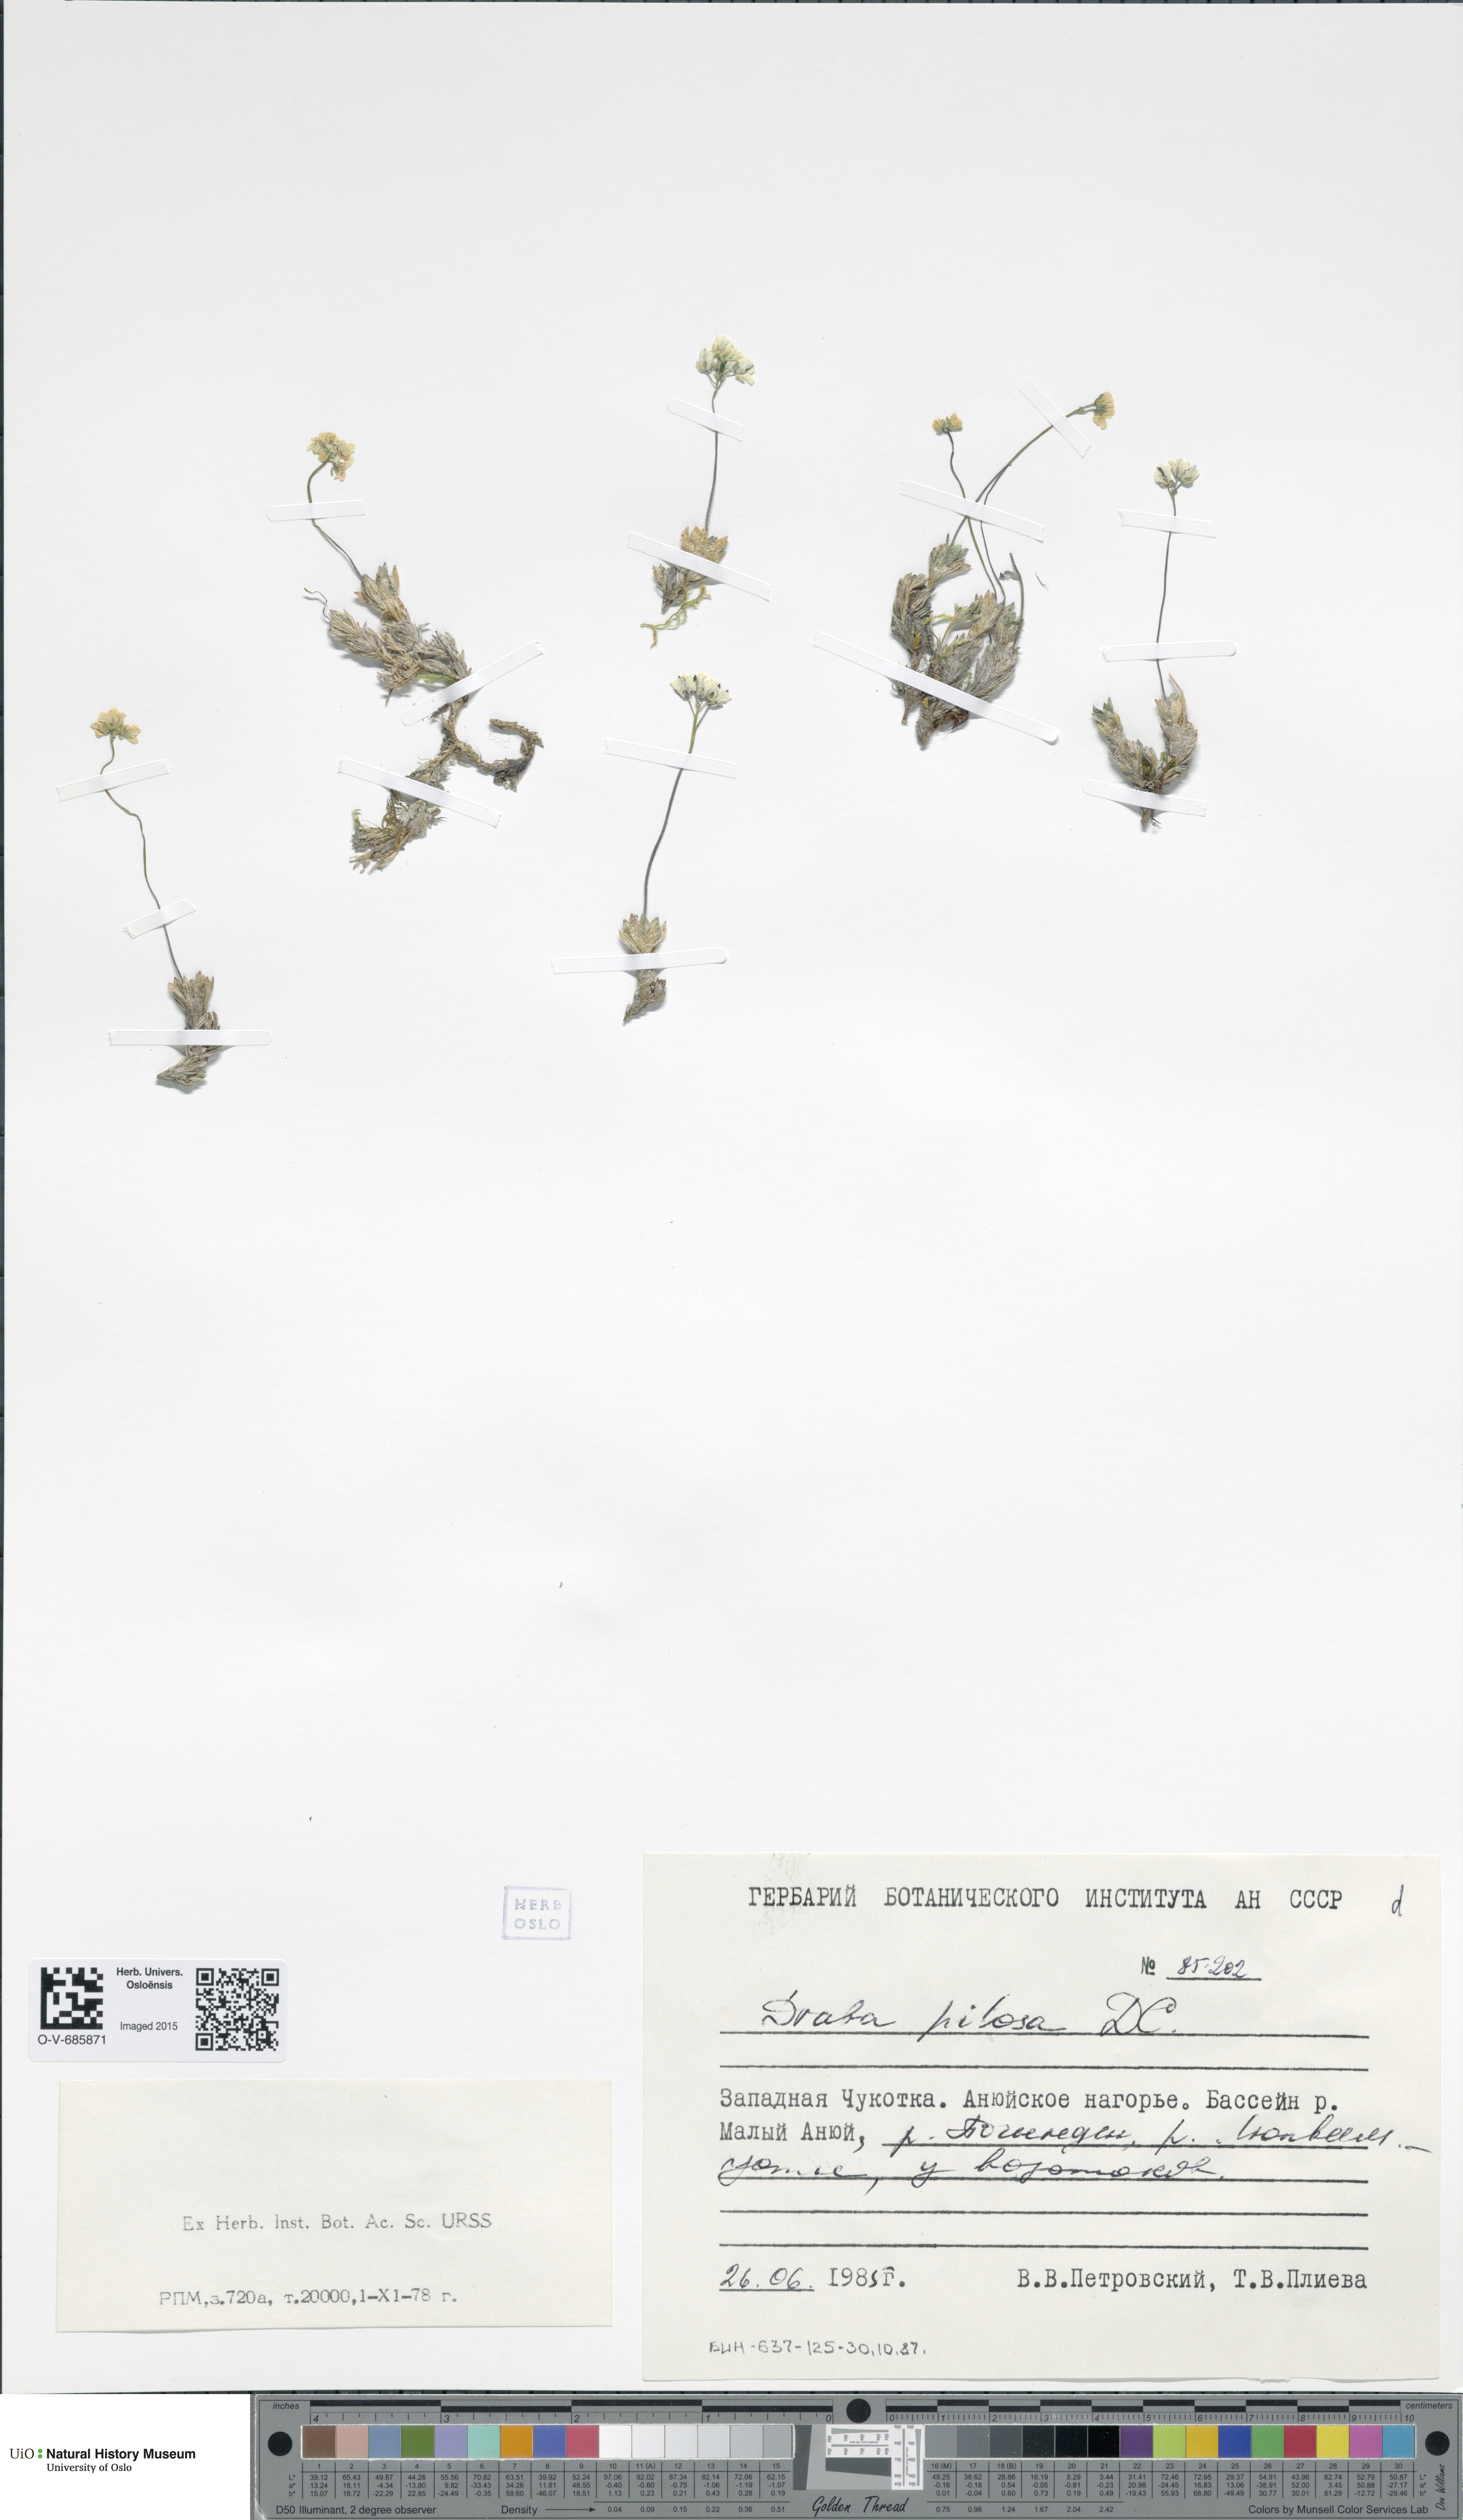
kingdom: Plantae
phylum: Tracheophyta
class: Magnoliopsida
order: Brassicales
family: Brassicaceae
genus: Draba
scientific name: Draba pilosa
